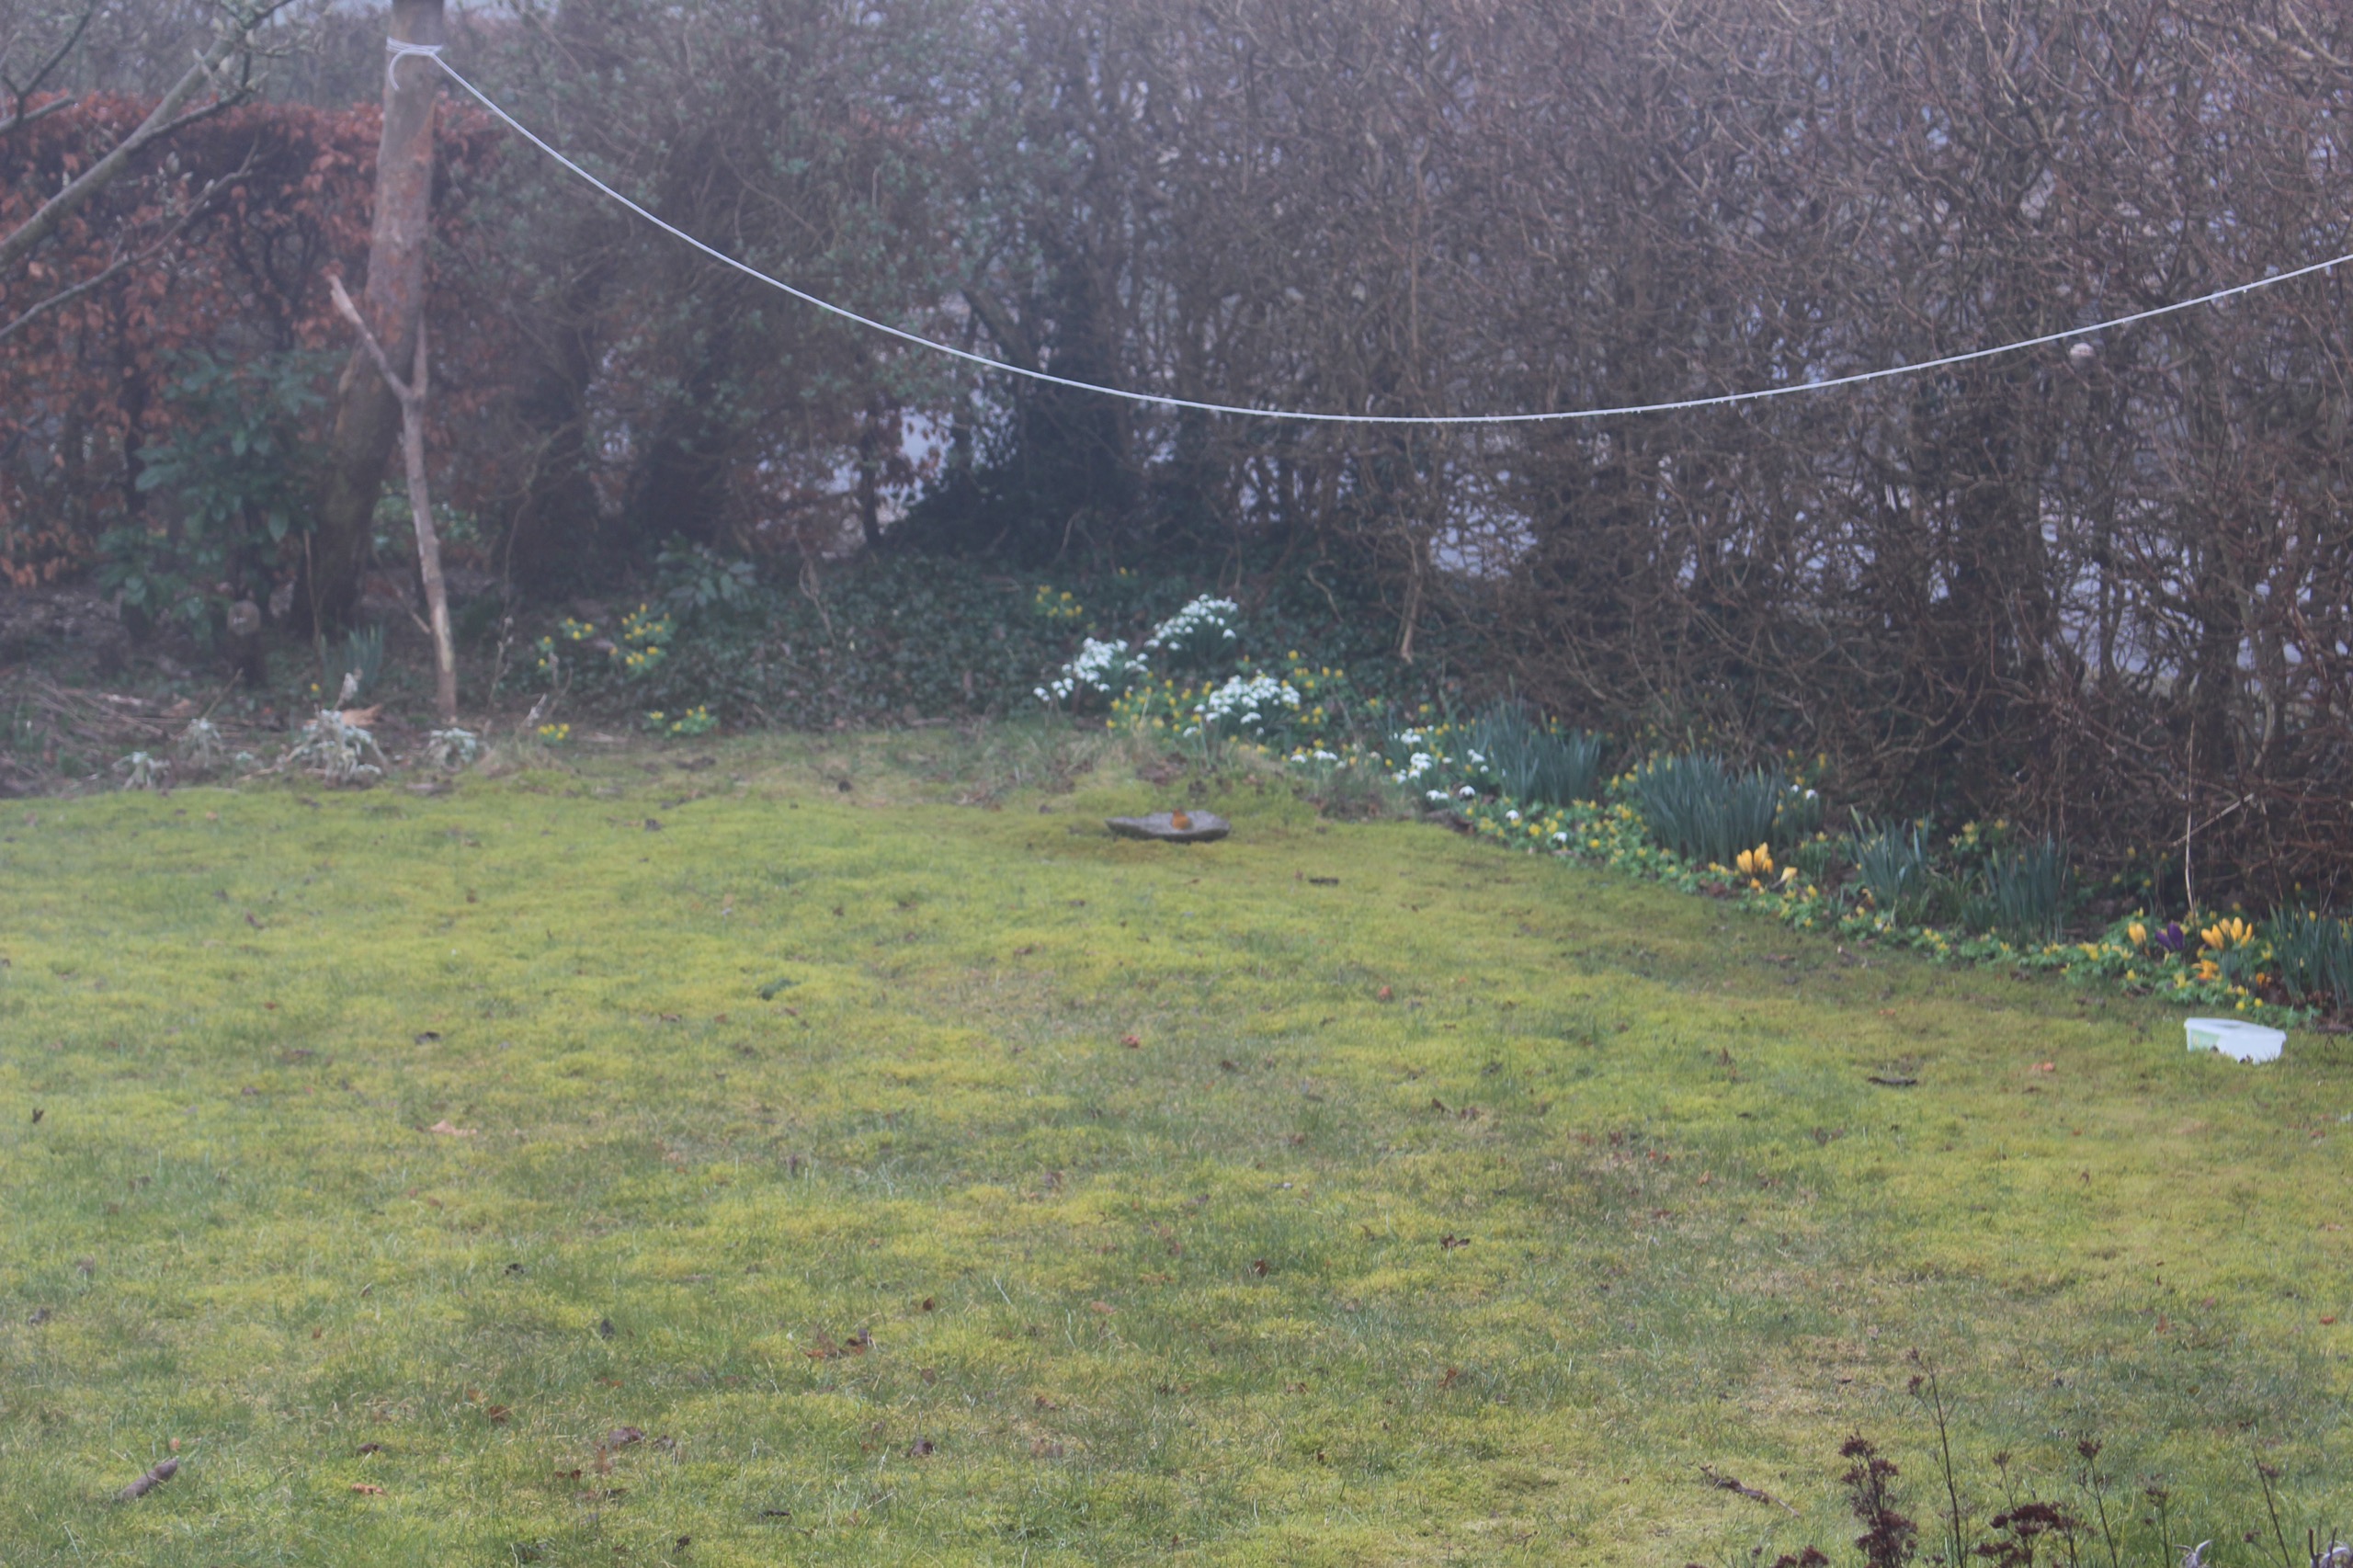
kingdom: Animalia
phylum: Chordata
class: Aves
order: Passeriformes
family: Muscicapidae
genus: Erithacus
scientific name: Erithacus rubecula
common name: Rødhals/rødkælk
